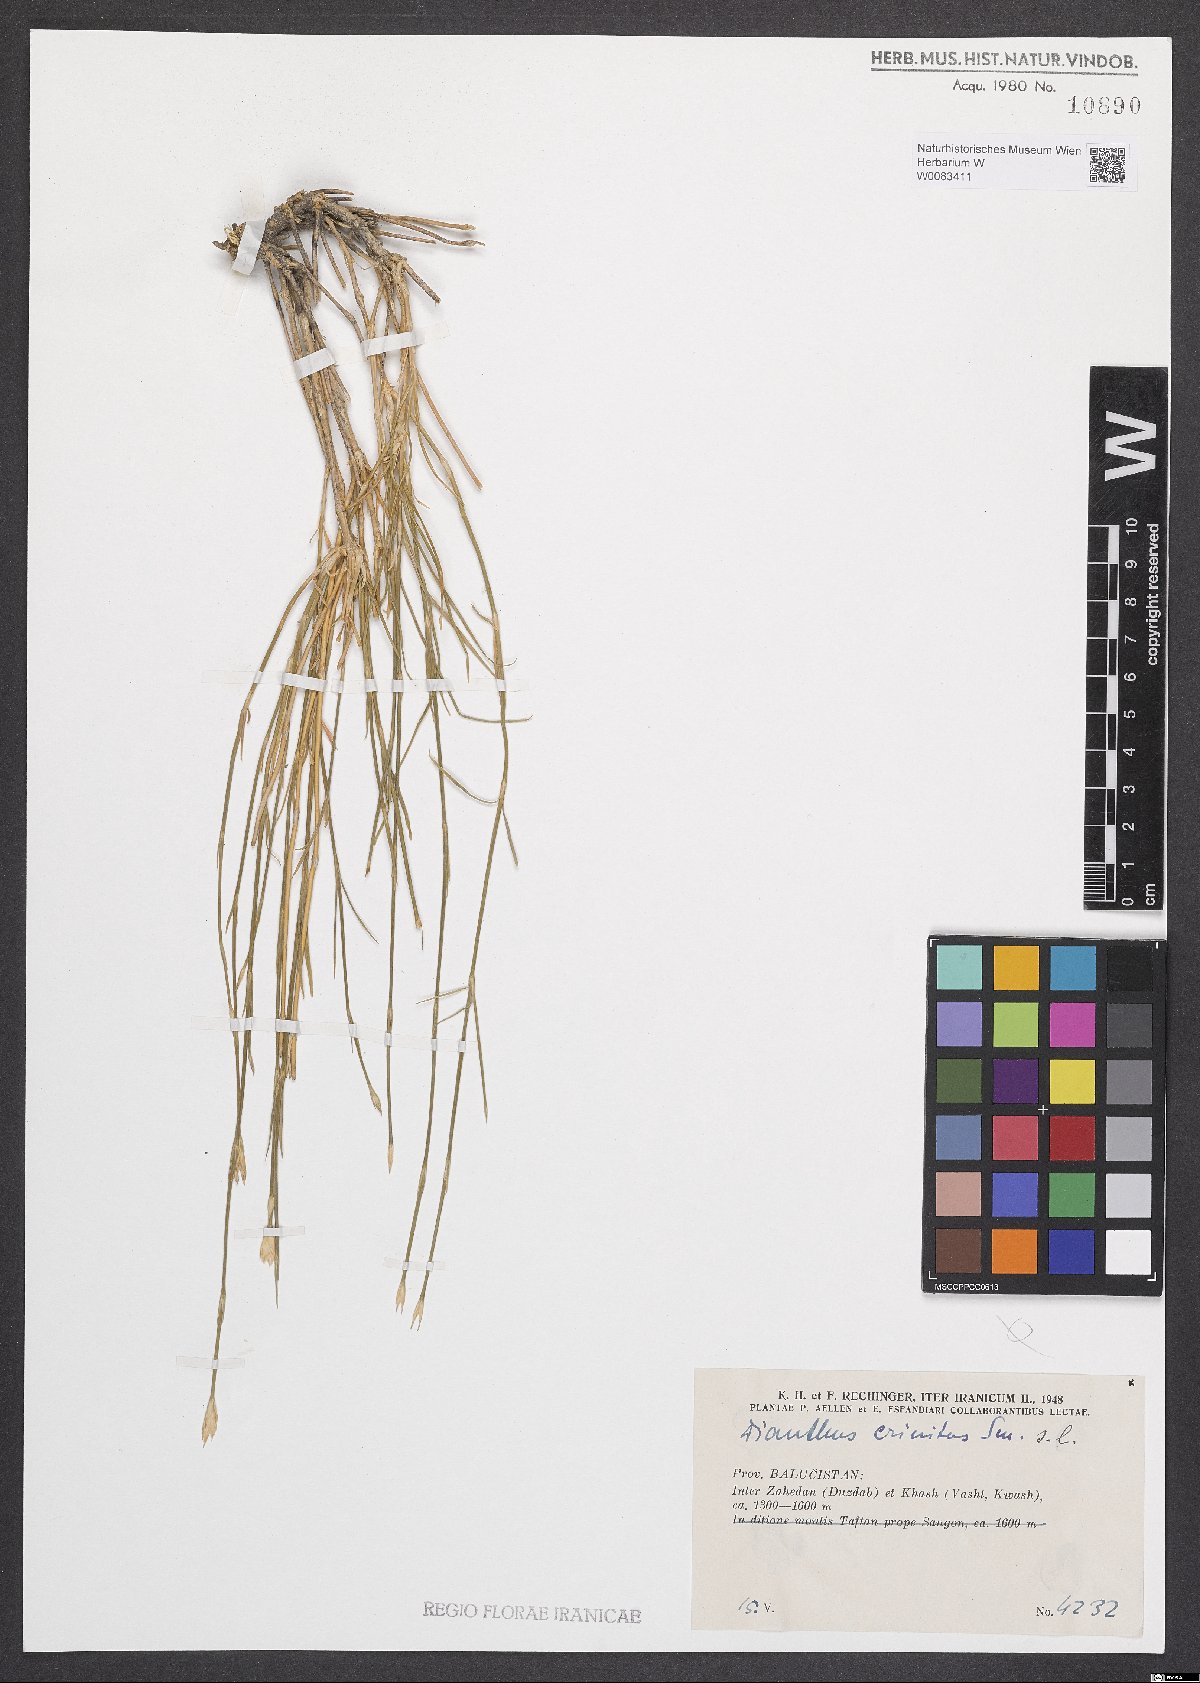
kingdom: Plantae
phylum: Tracheophyta
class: Magnoliopsida
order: Caryophyllales
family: Caryophyllaceae
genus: Dianthus
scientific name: Dianthus crinitus
